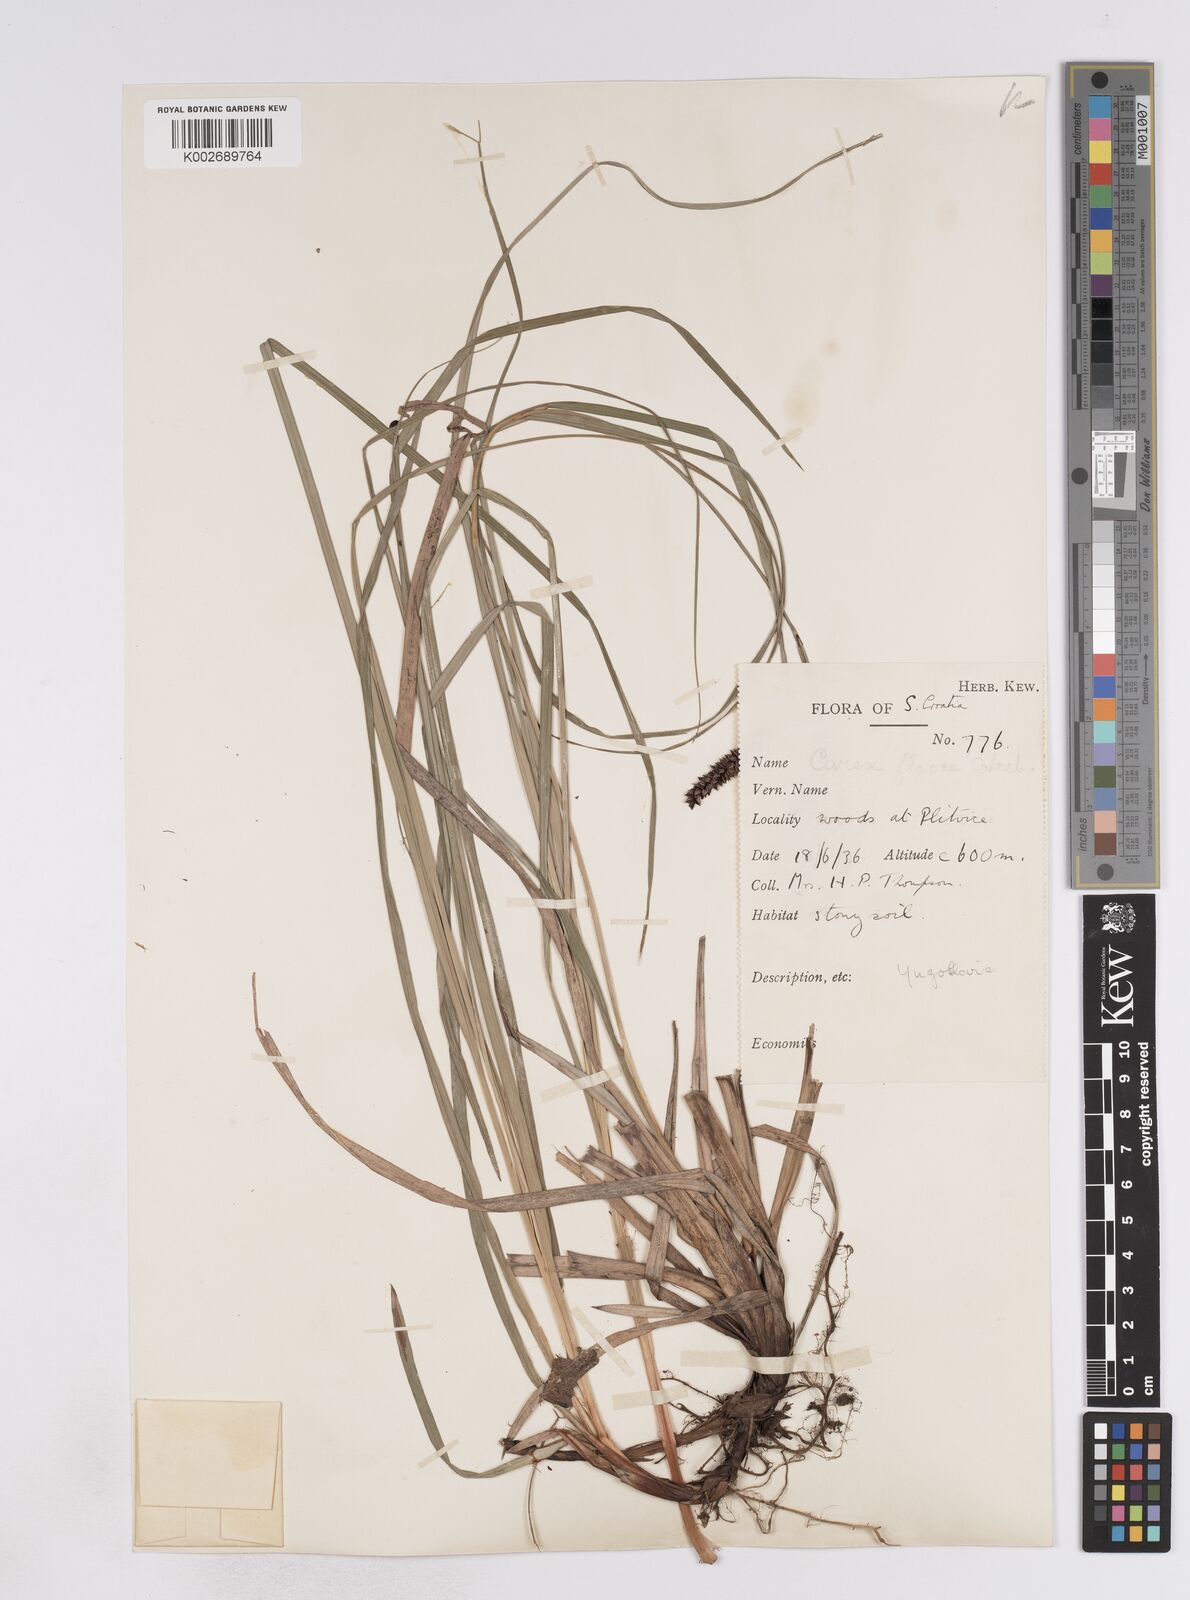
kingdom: Plantae
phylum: Tracheophyta
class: Liliopsida
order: Poales
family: Cyperaceae
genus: Carex
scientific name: Carex flacca
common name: Glaucous sedge
